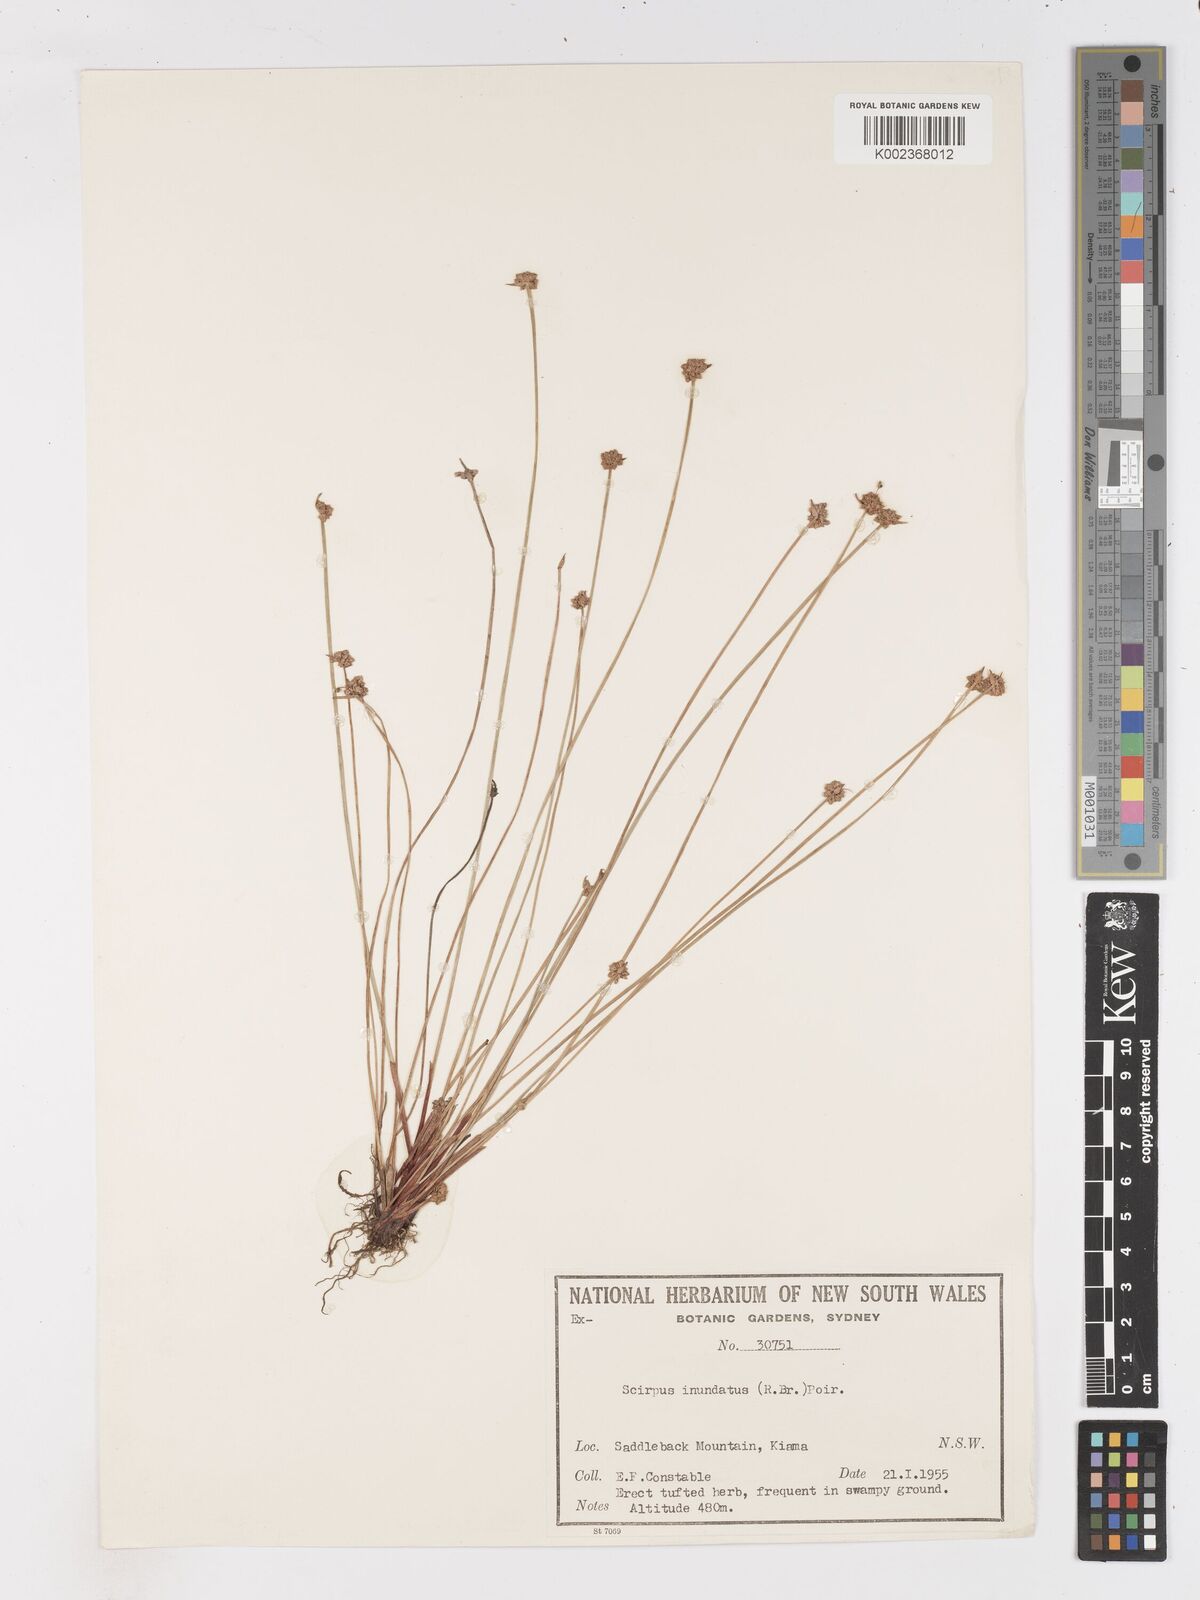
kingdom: Plantae
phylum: Tracheophyta
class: Liliopsida
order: Poales
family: Cyperaceae
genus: Isolepis
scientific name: Isolepis inundata
